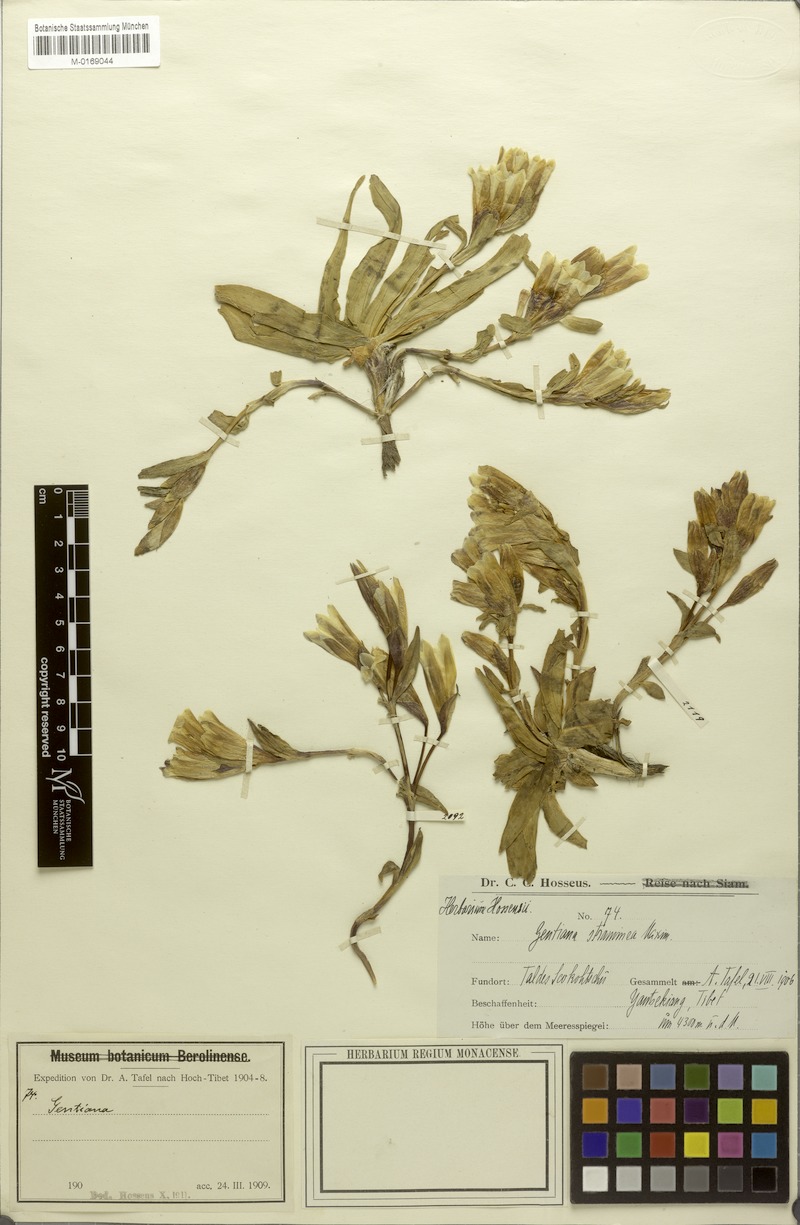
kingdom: Plantae
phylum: Tracheophyta
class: Magnoliopsida
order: Gentianales
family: Gentianaceae
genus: Gentiana
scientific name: Gentiana straminea
